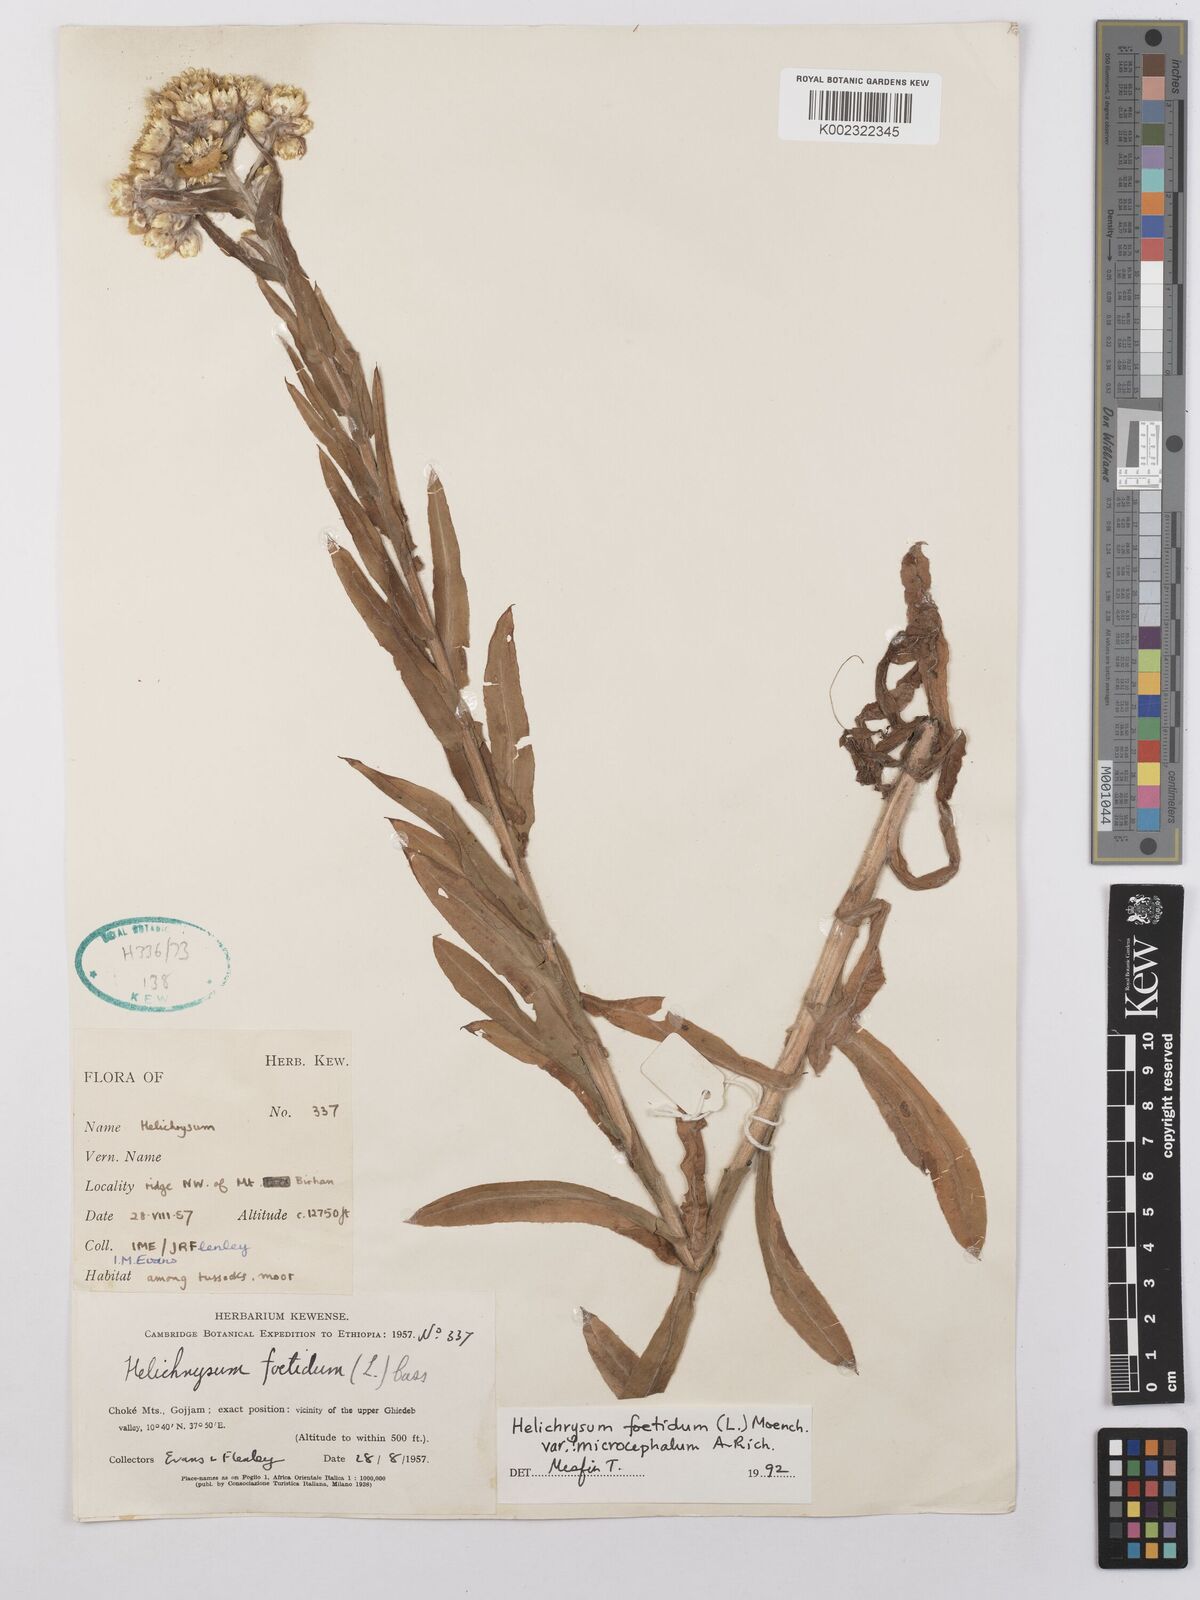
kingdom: Plantae
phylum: Tracheophyta
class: Magnoliopsida
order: Asterales
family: Asteraceae
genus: Helichrysum
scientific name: Helichrysum foetidum
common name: Stinking everlasting
